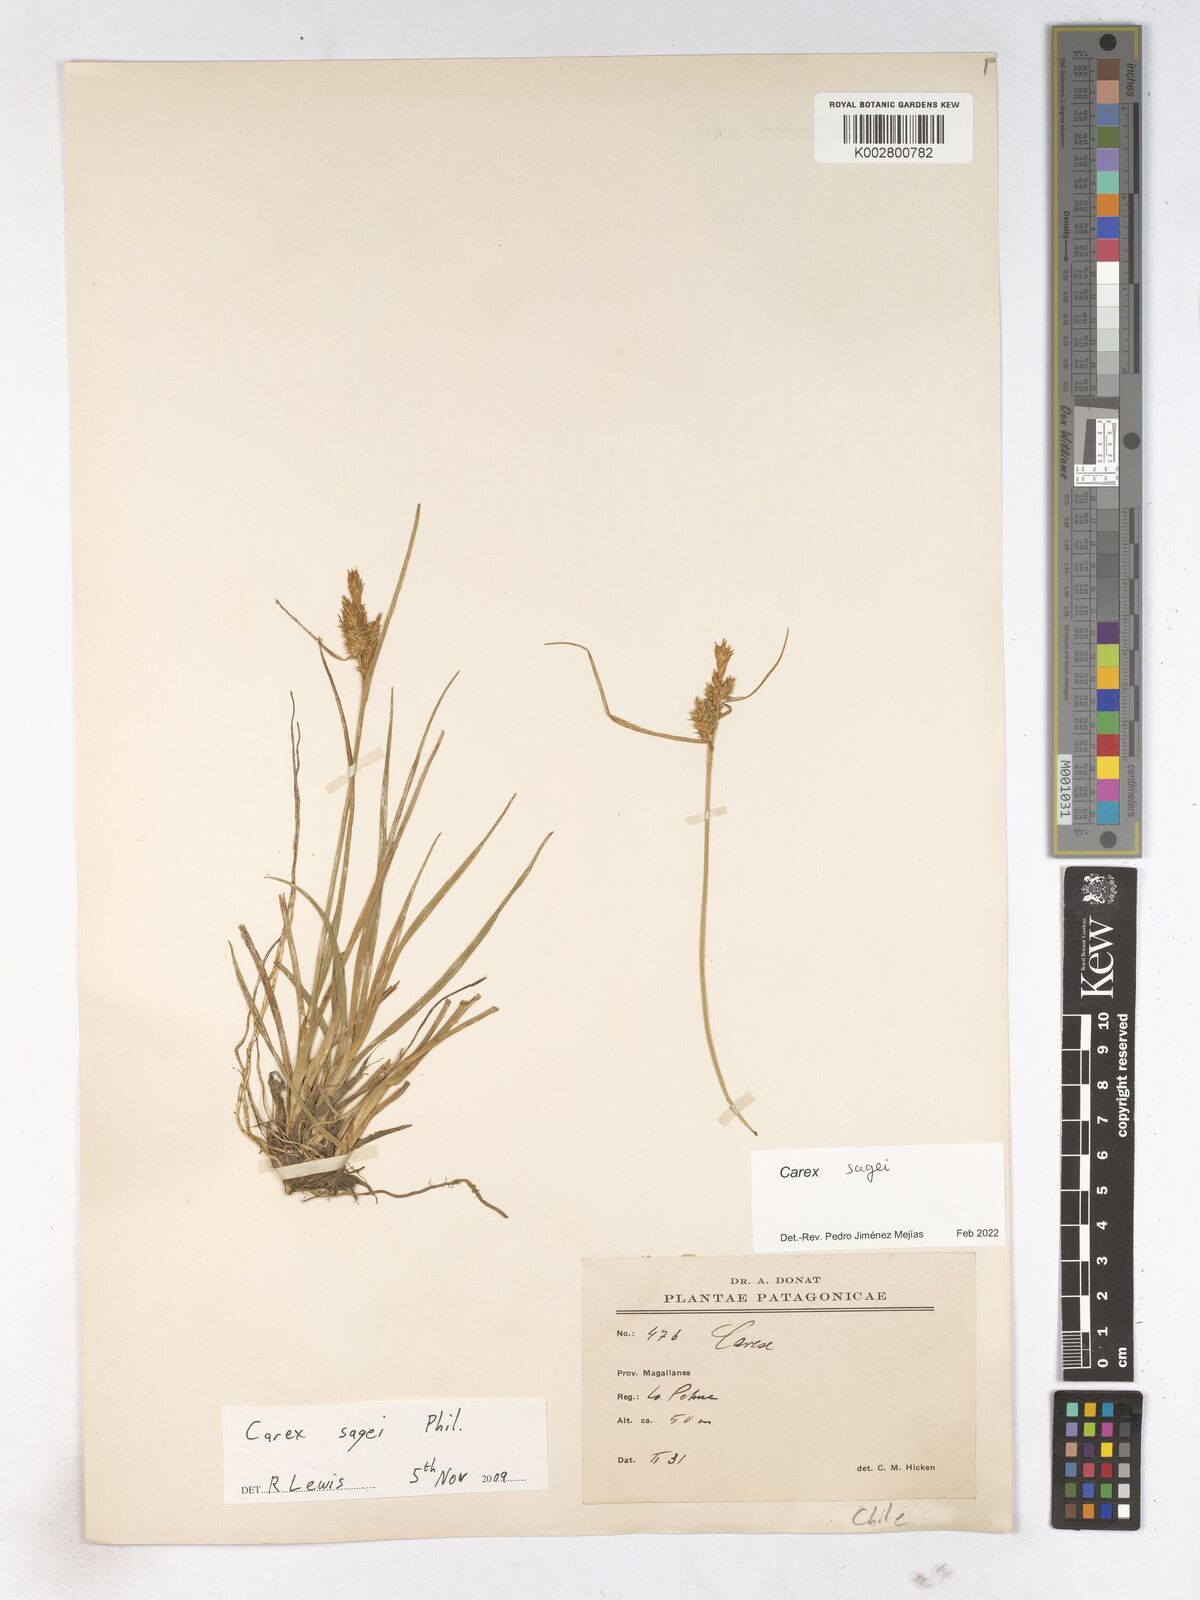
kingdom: Plantae
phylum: Tracheophyta
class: Liliopsida
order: Poales
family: Cyperaceae
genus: Carex
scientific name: Carex sagei
